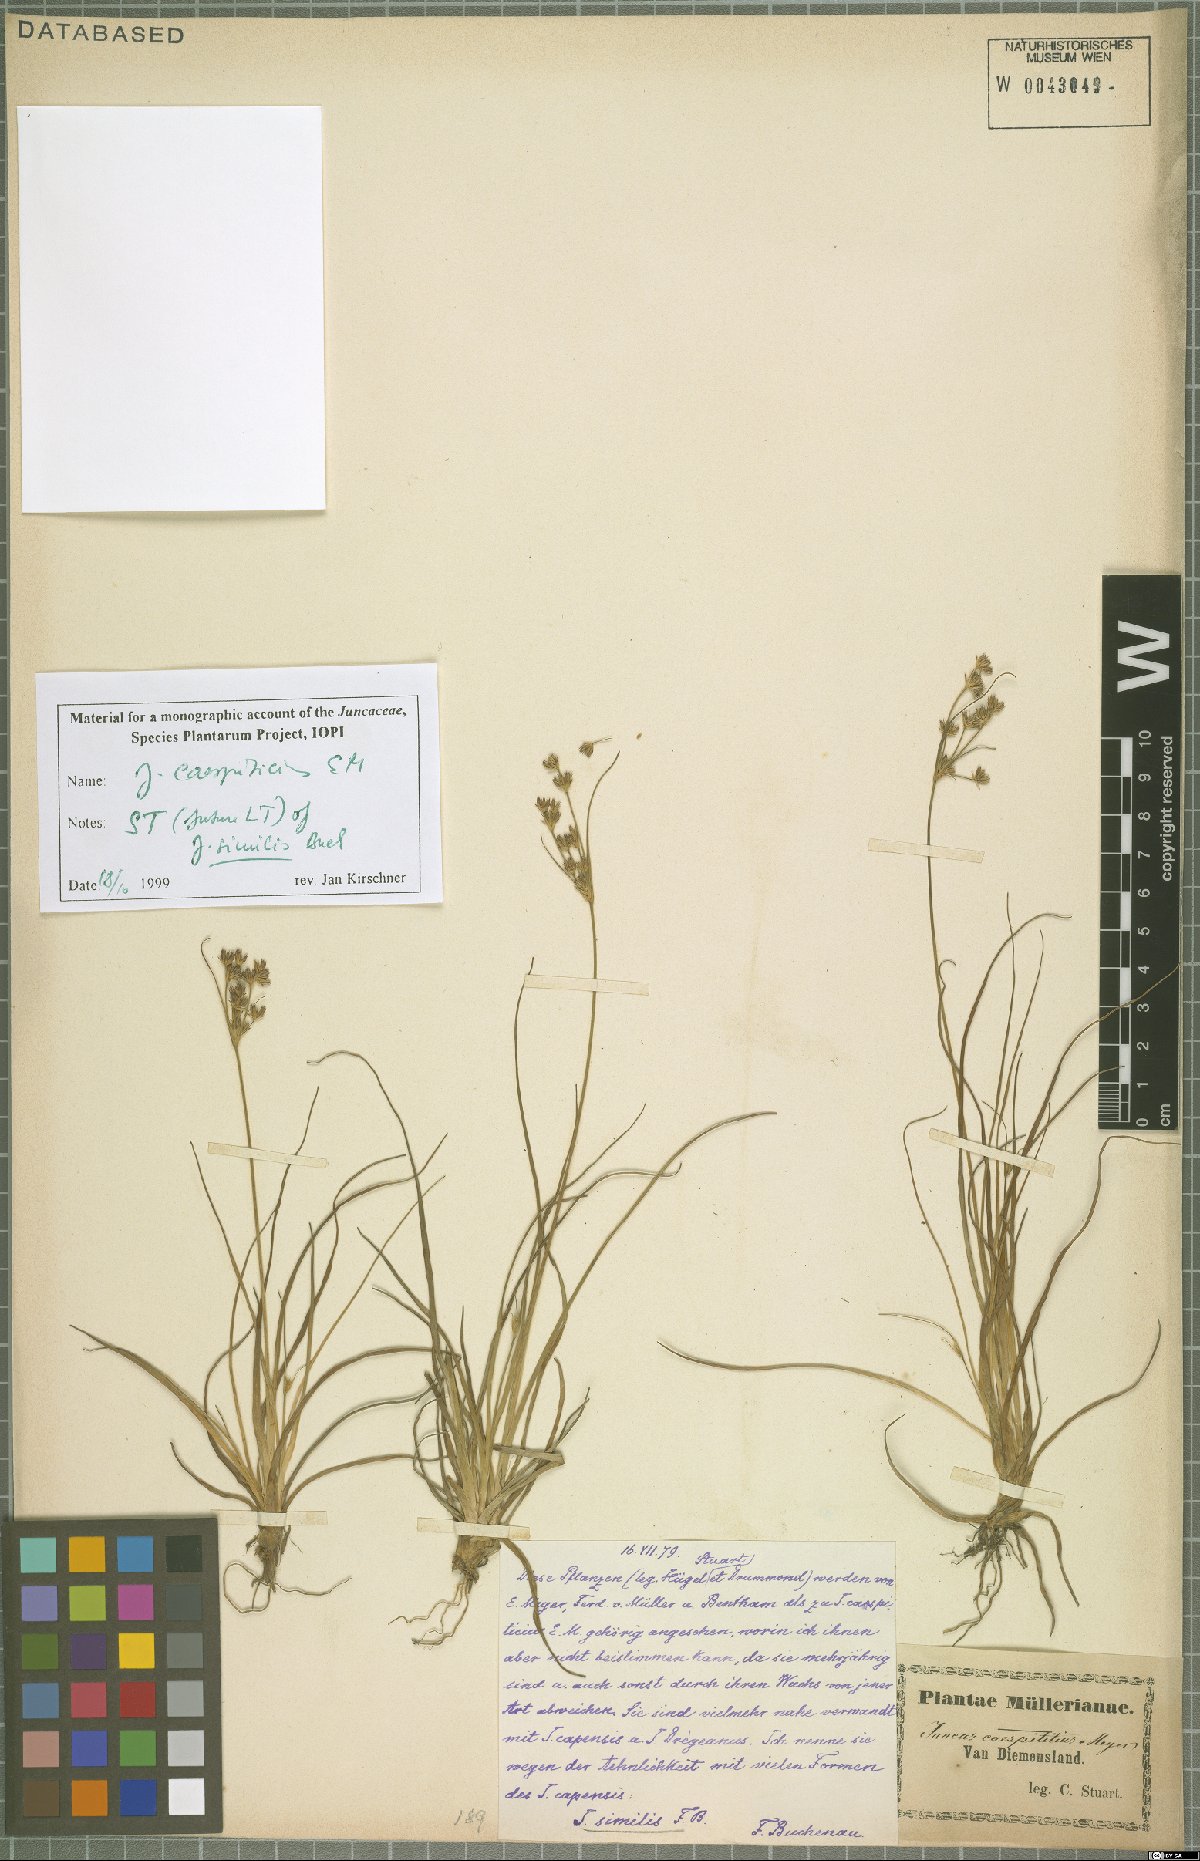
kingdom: Plantae
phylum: Tracheophyta
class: Liliopsida
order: Poales
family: Juncaceae
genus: Juncus
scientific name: Juncus caespiticius
